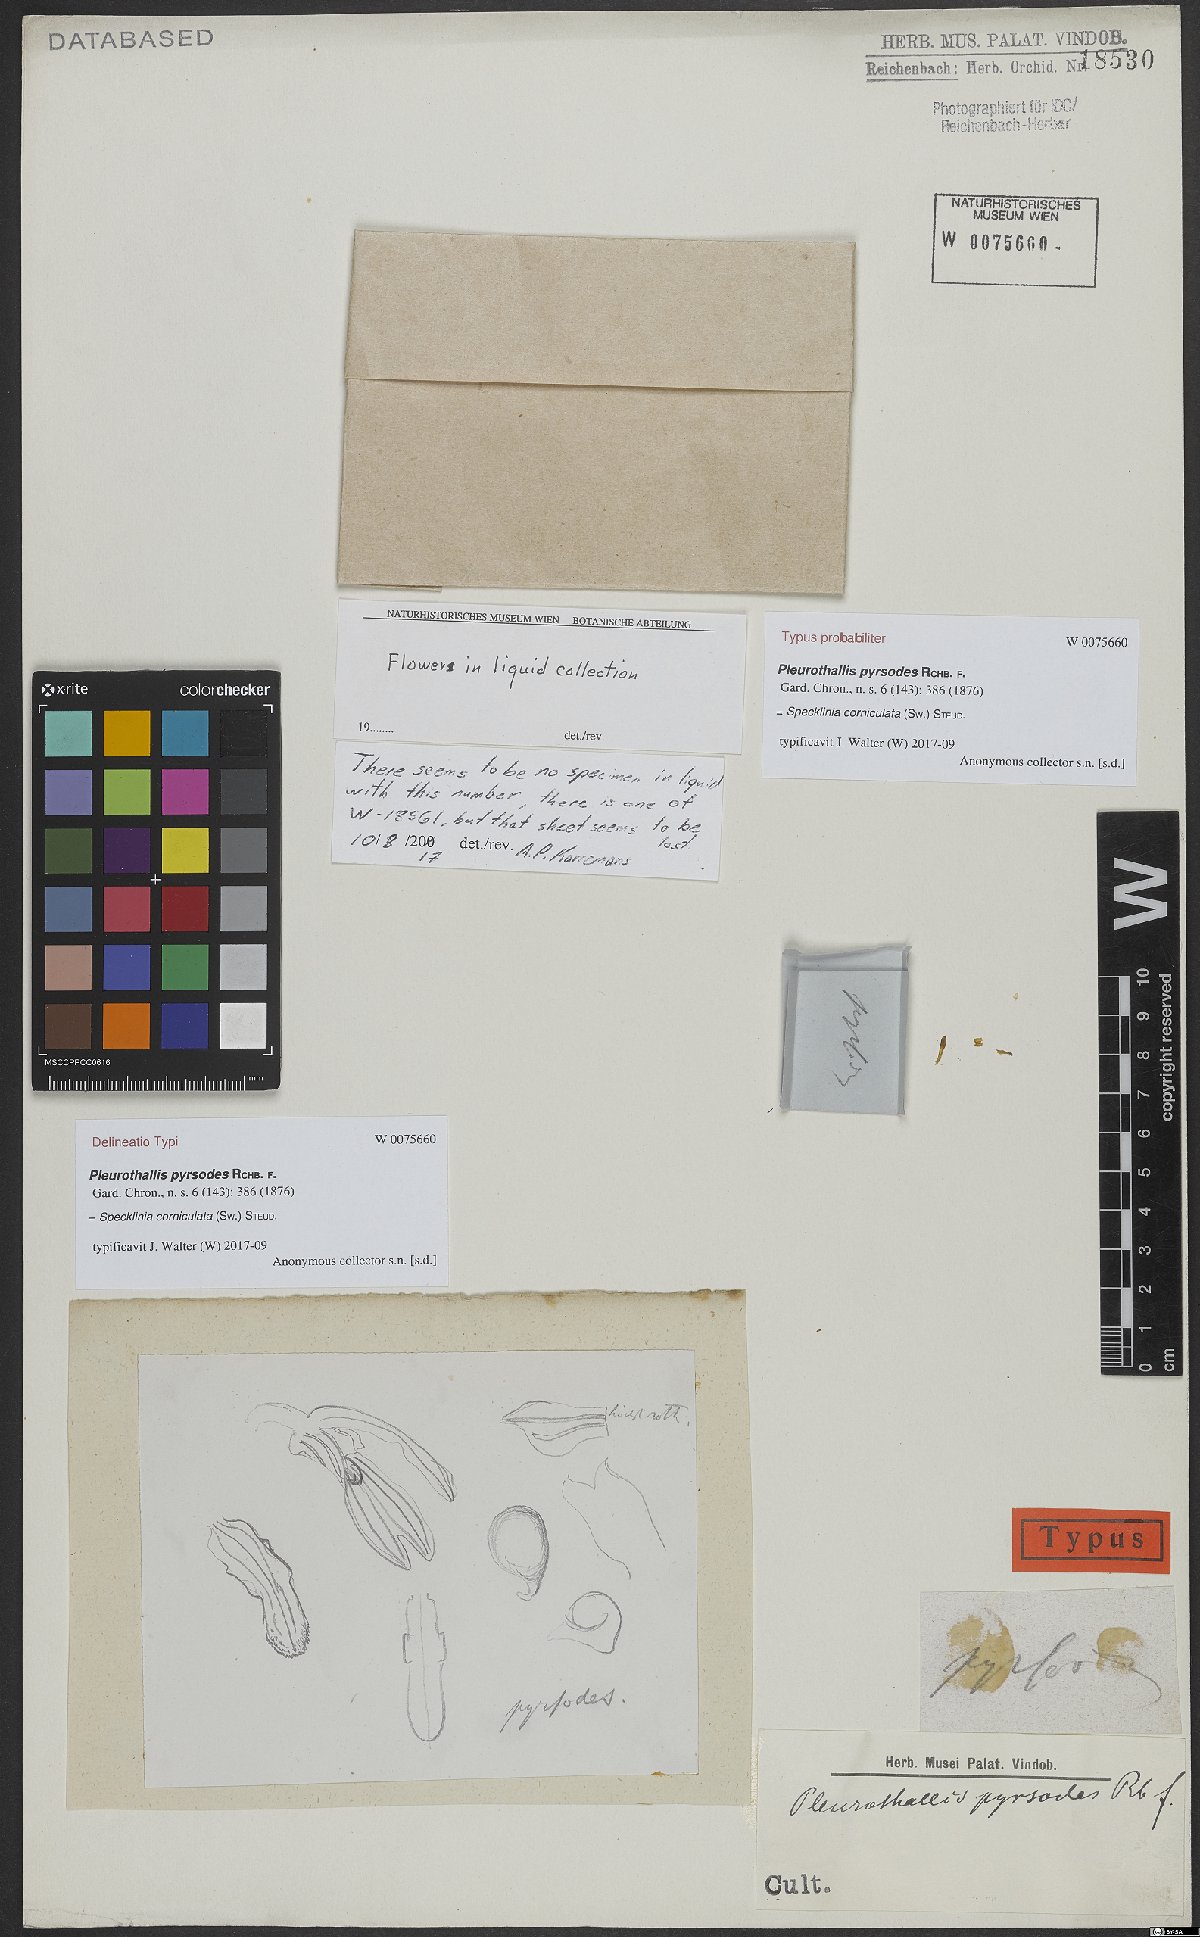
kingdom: Plantae
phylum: Tracheophyta
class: Liliopsida
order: Asparagales
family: Orchidaceae
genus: Specklinia
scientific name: Specklinia corniculata
